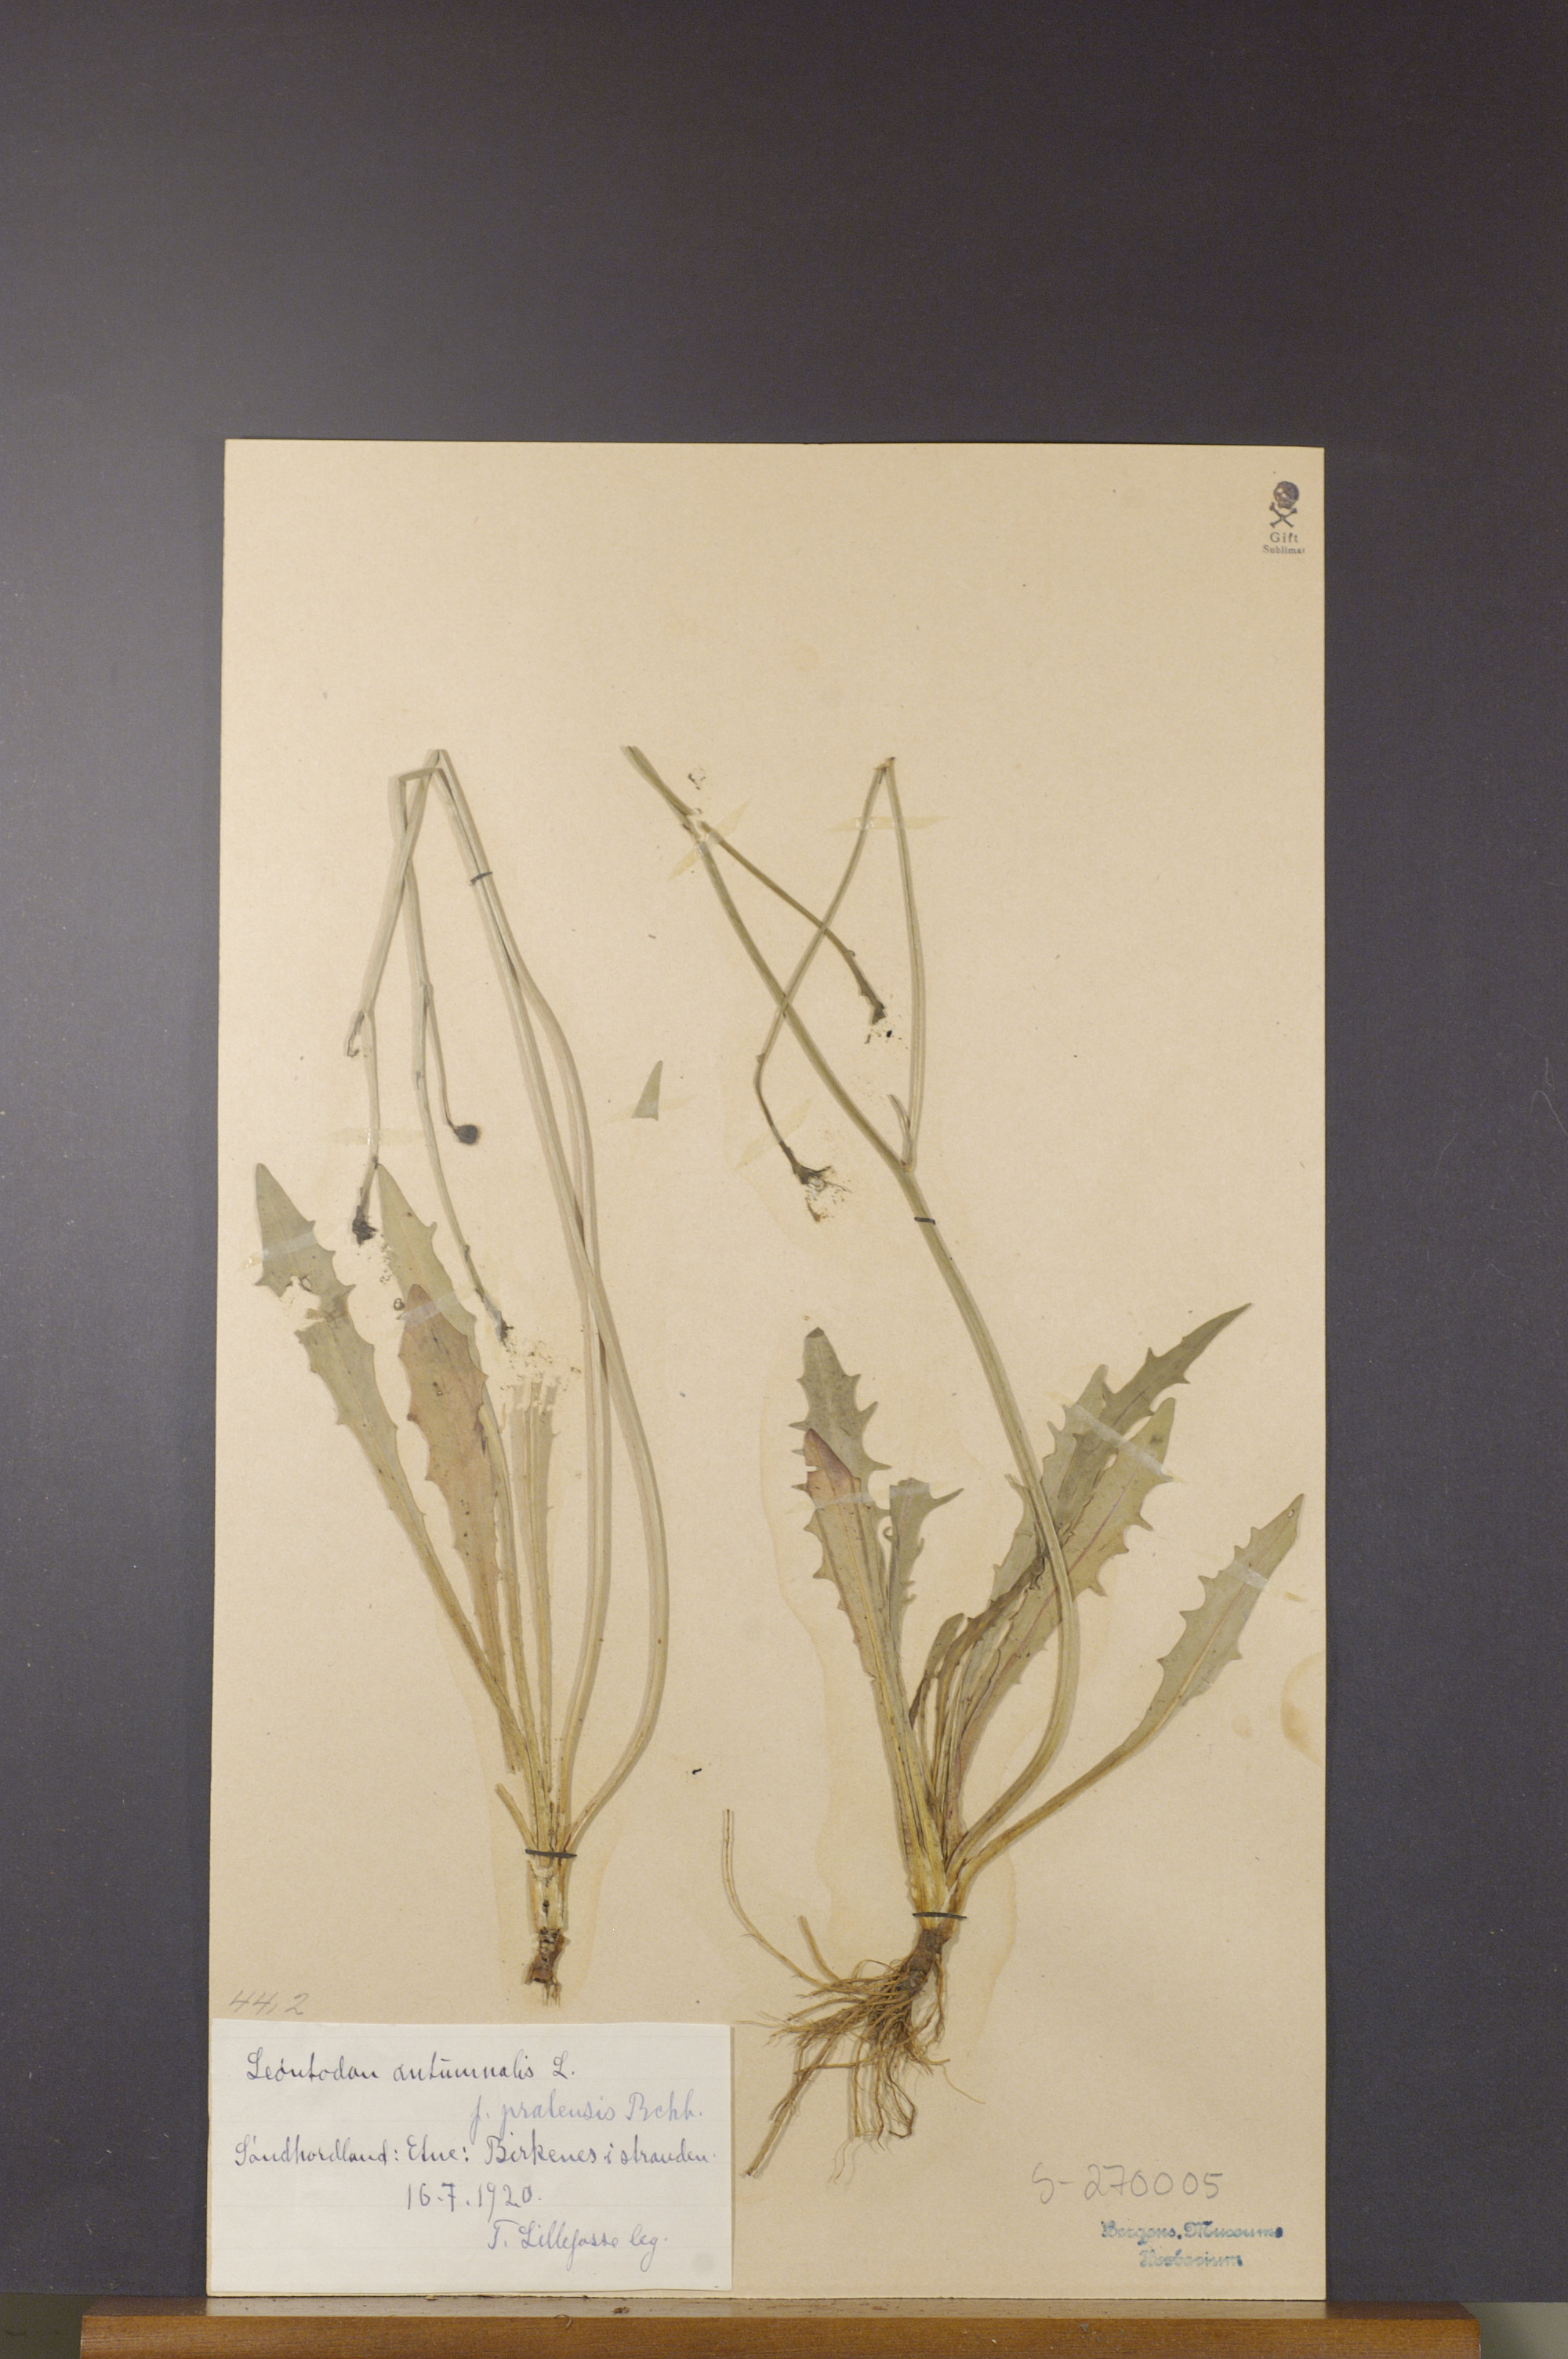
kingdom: Plantae
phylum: Tracheophyta
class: Magnoliopsida
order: Asterales
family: Asteraceae
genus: Scorzoneroides
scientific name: Scorzoneroides autumnalis
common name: Autumn hawkbit
